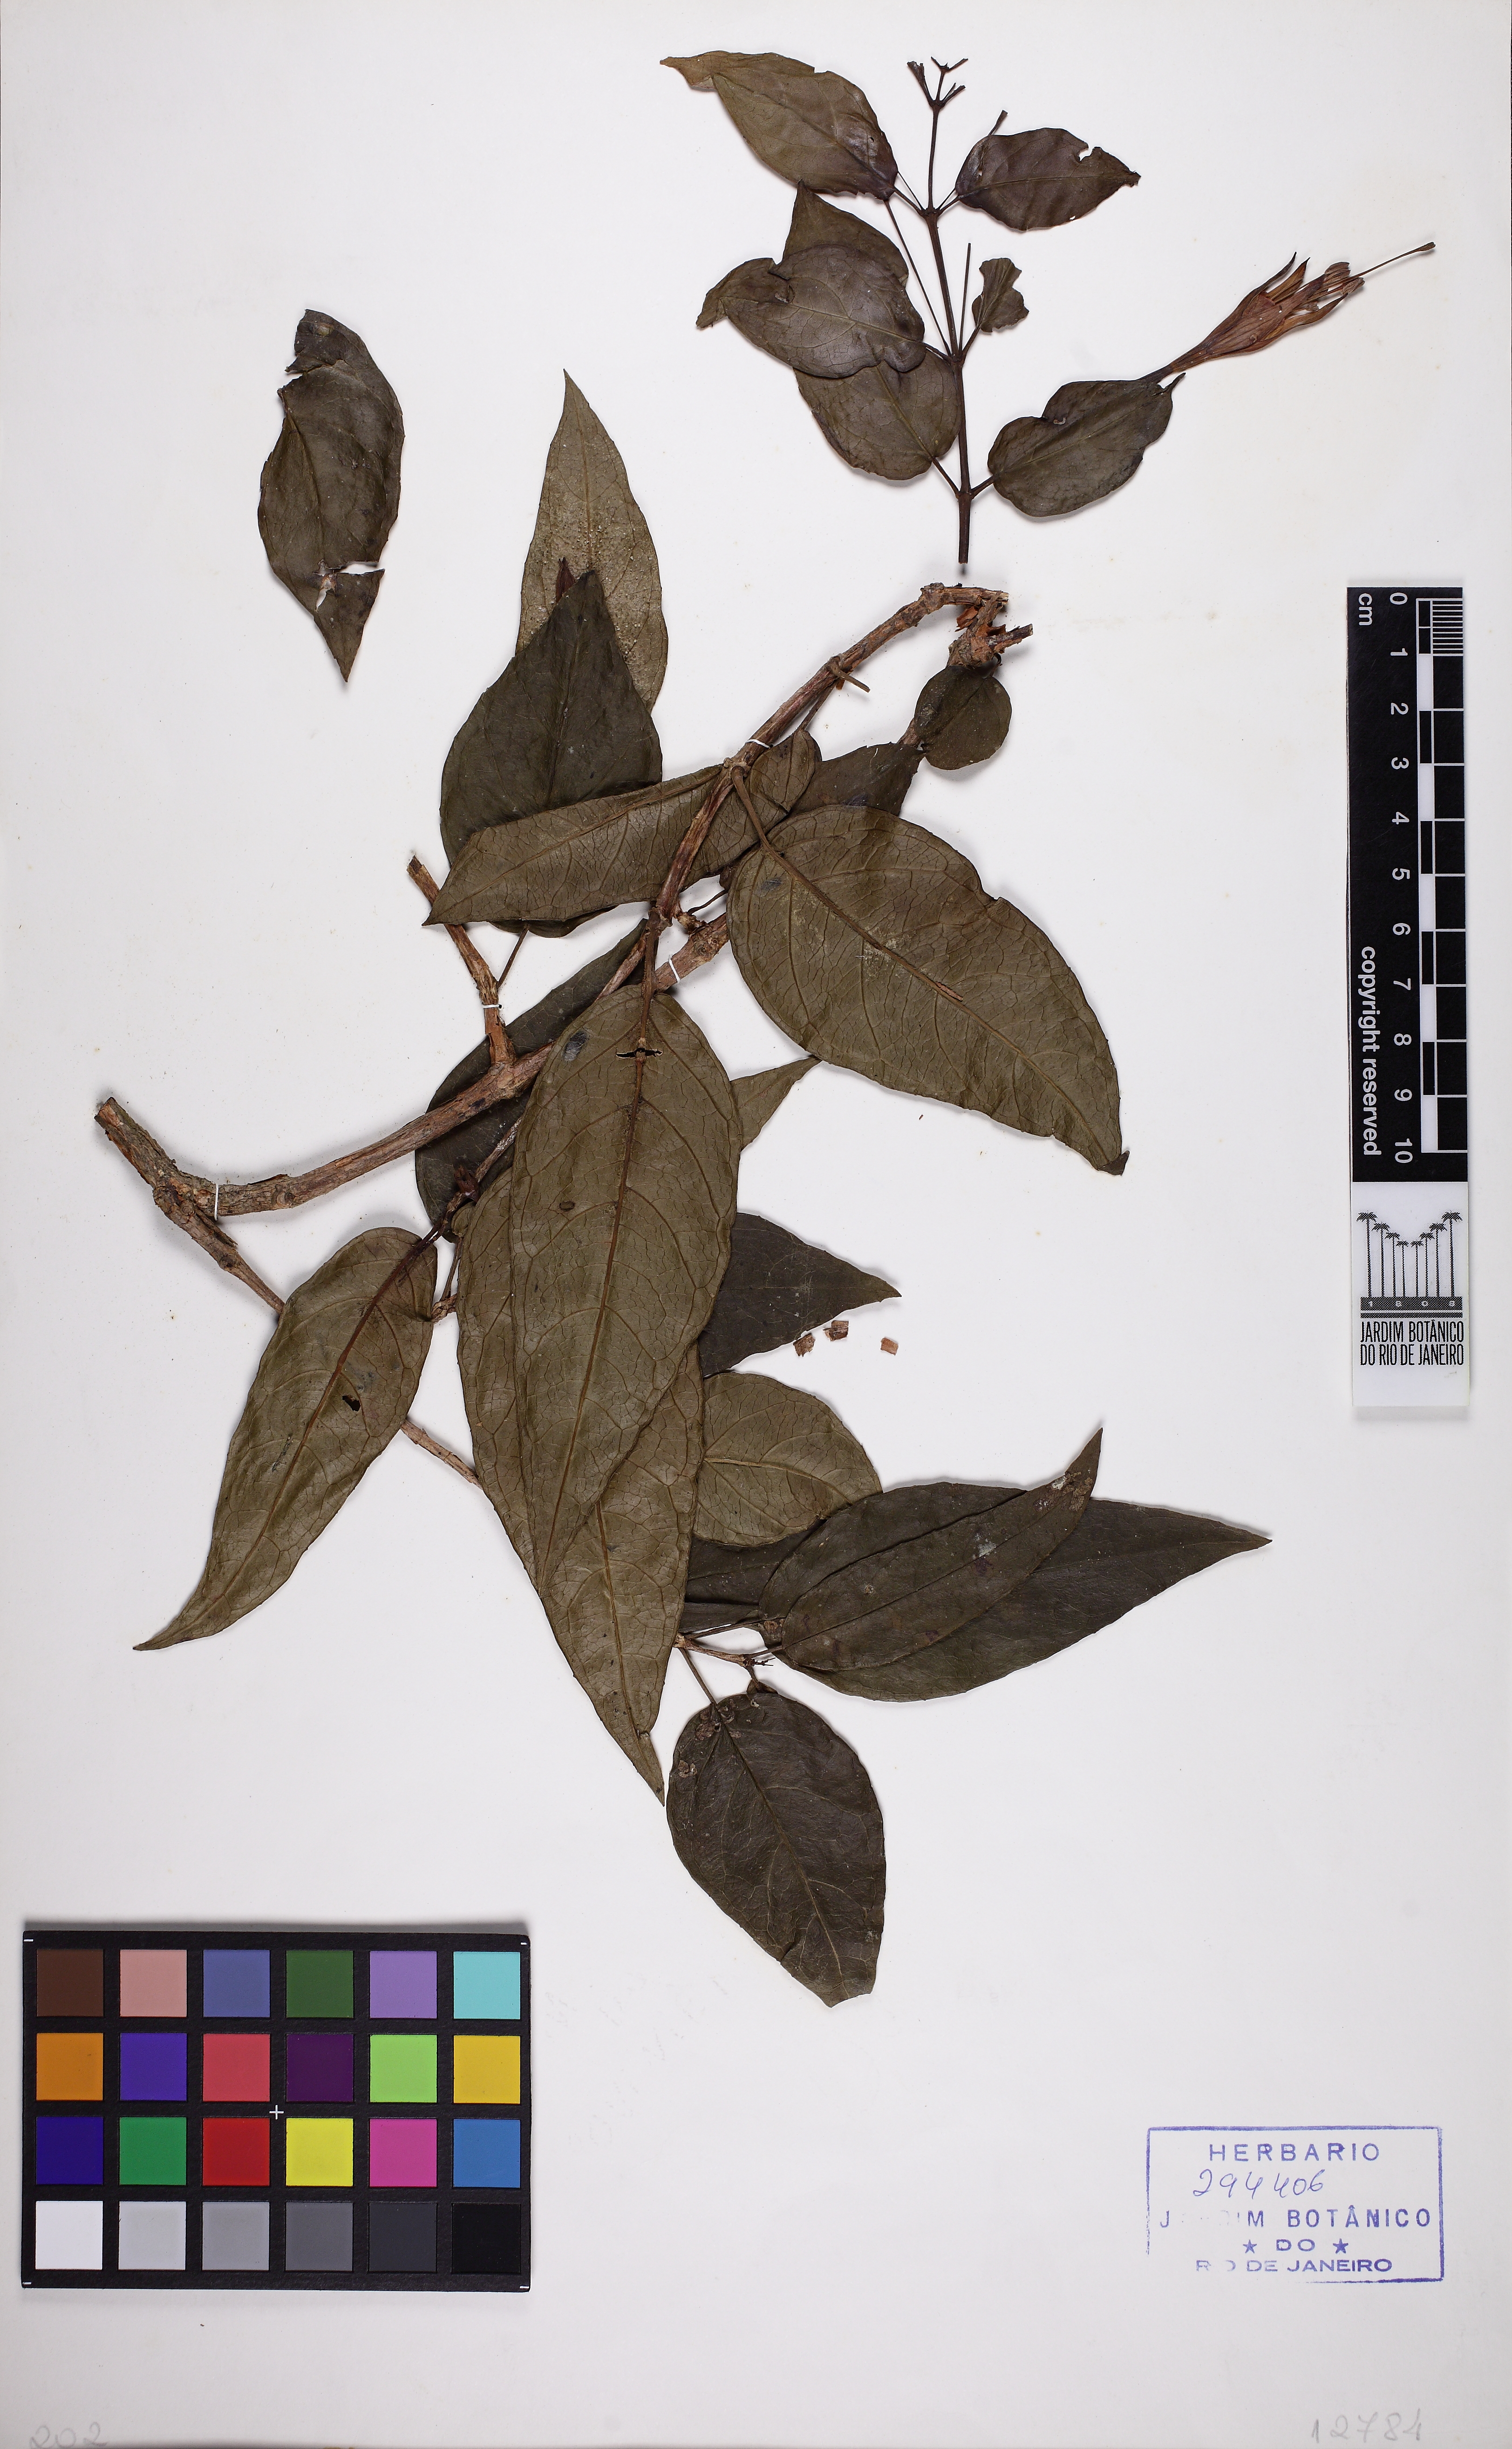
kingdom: Plantae
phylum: Tracheophyta
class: Magnoliopsida
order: Myrtales
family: Onagraceae
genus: Fuchsia
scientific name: Fuchsia regia
